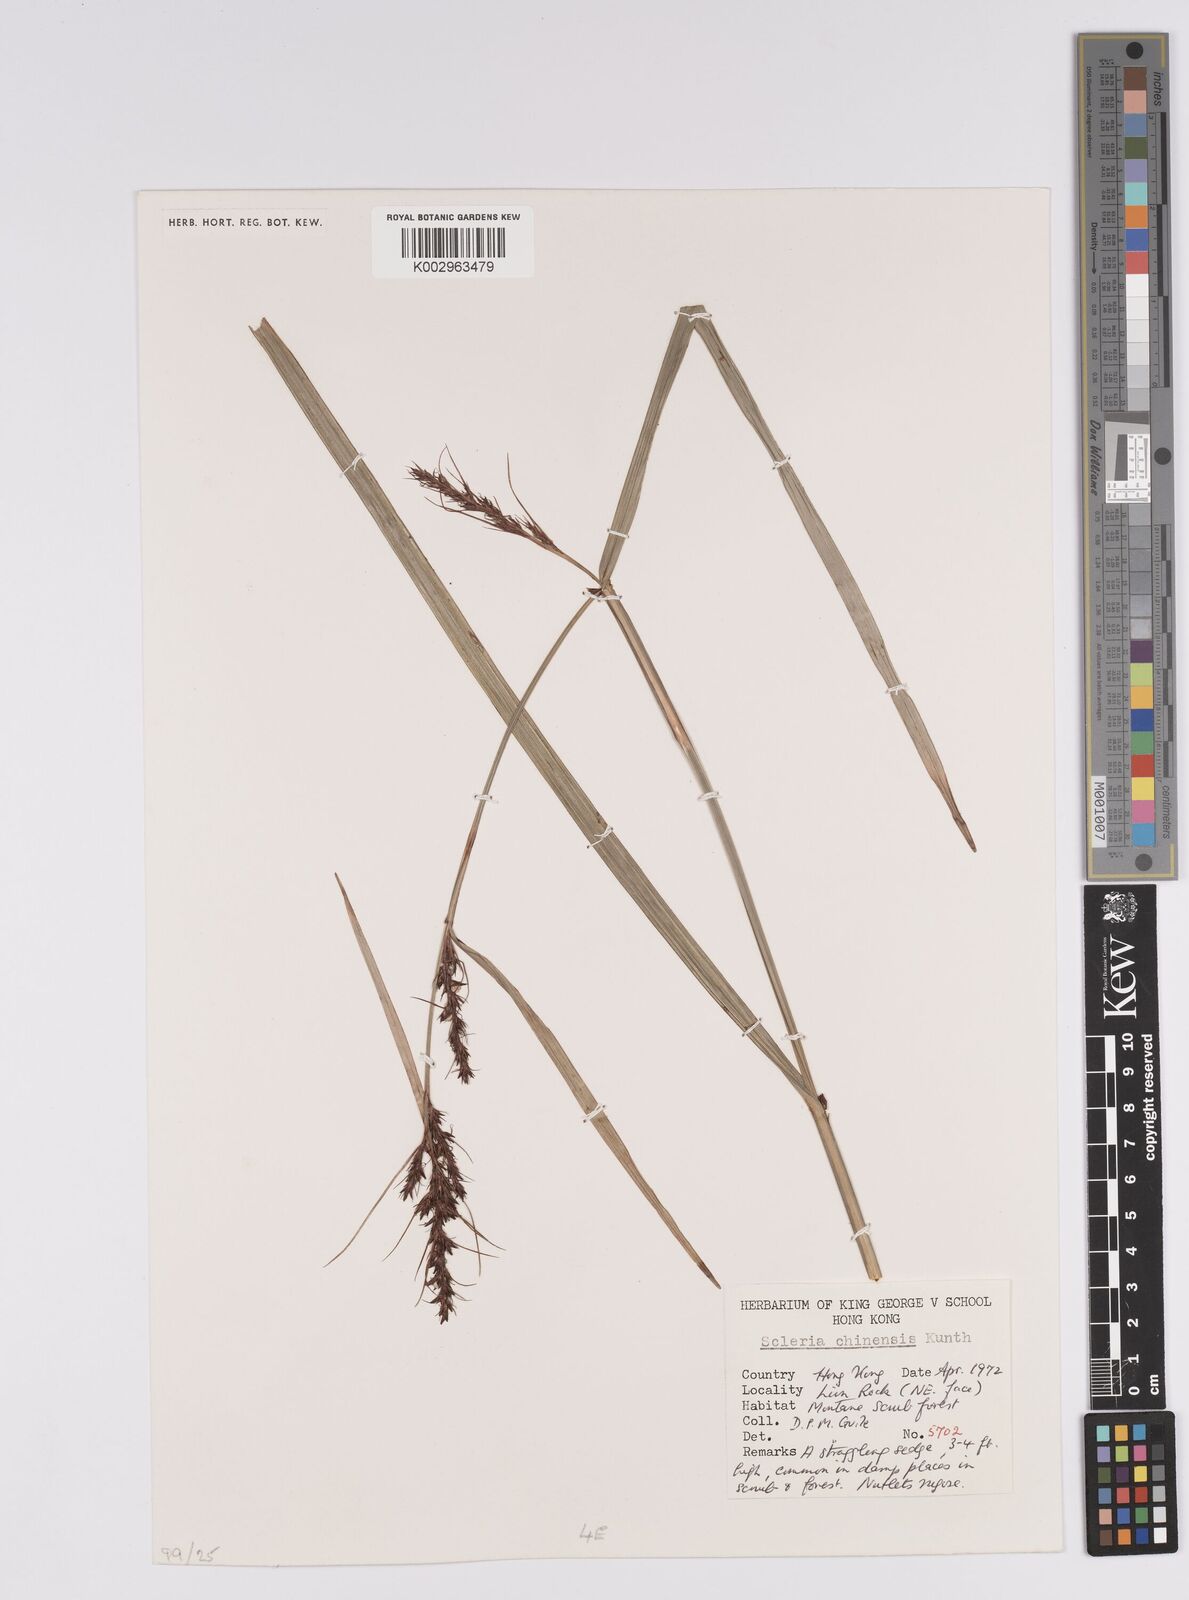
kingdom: Plantae
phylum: Tracheophyta
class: Liliopsida
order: Poales
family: Cyperaceae
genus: Scleria
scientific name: Scleria ciliaris
